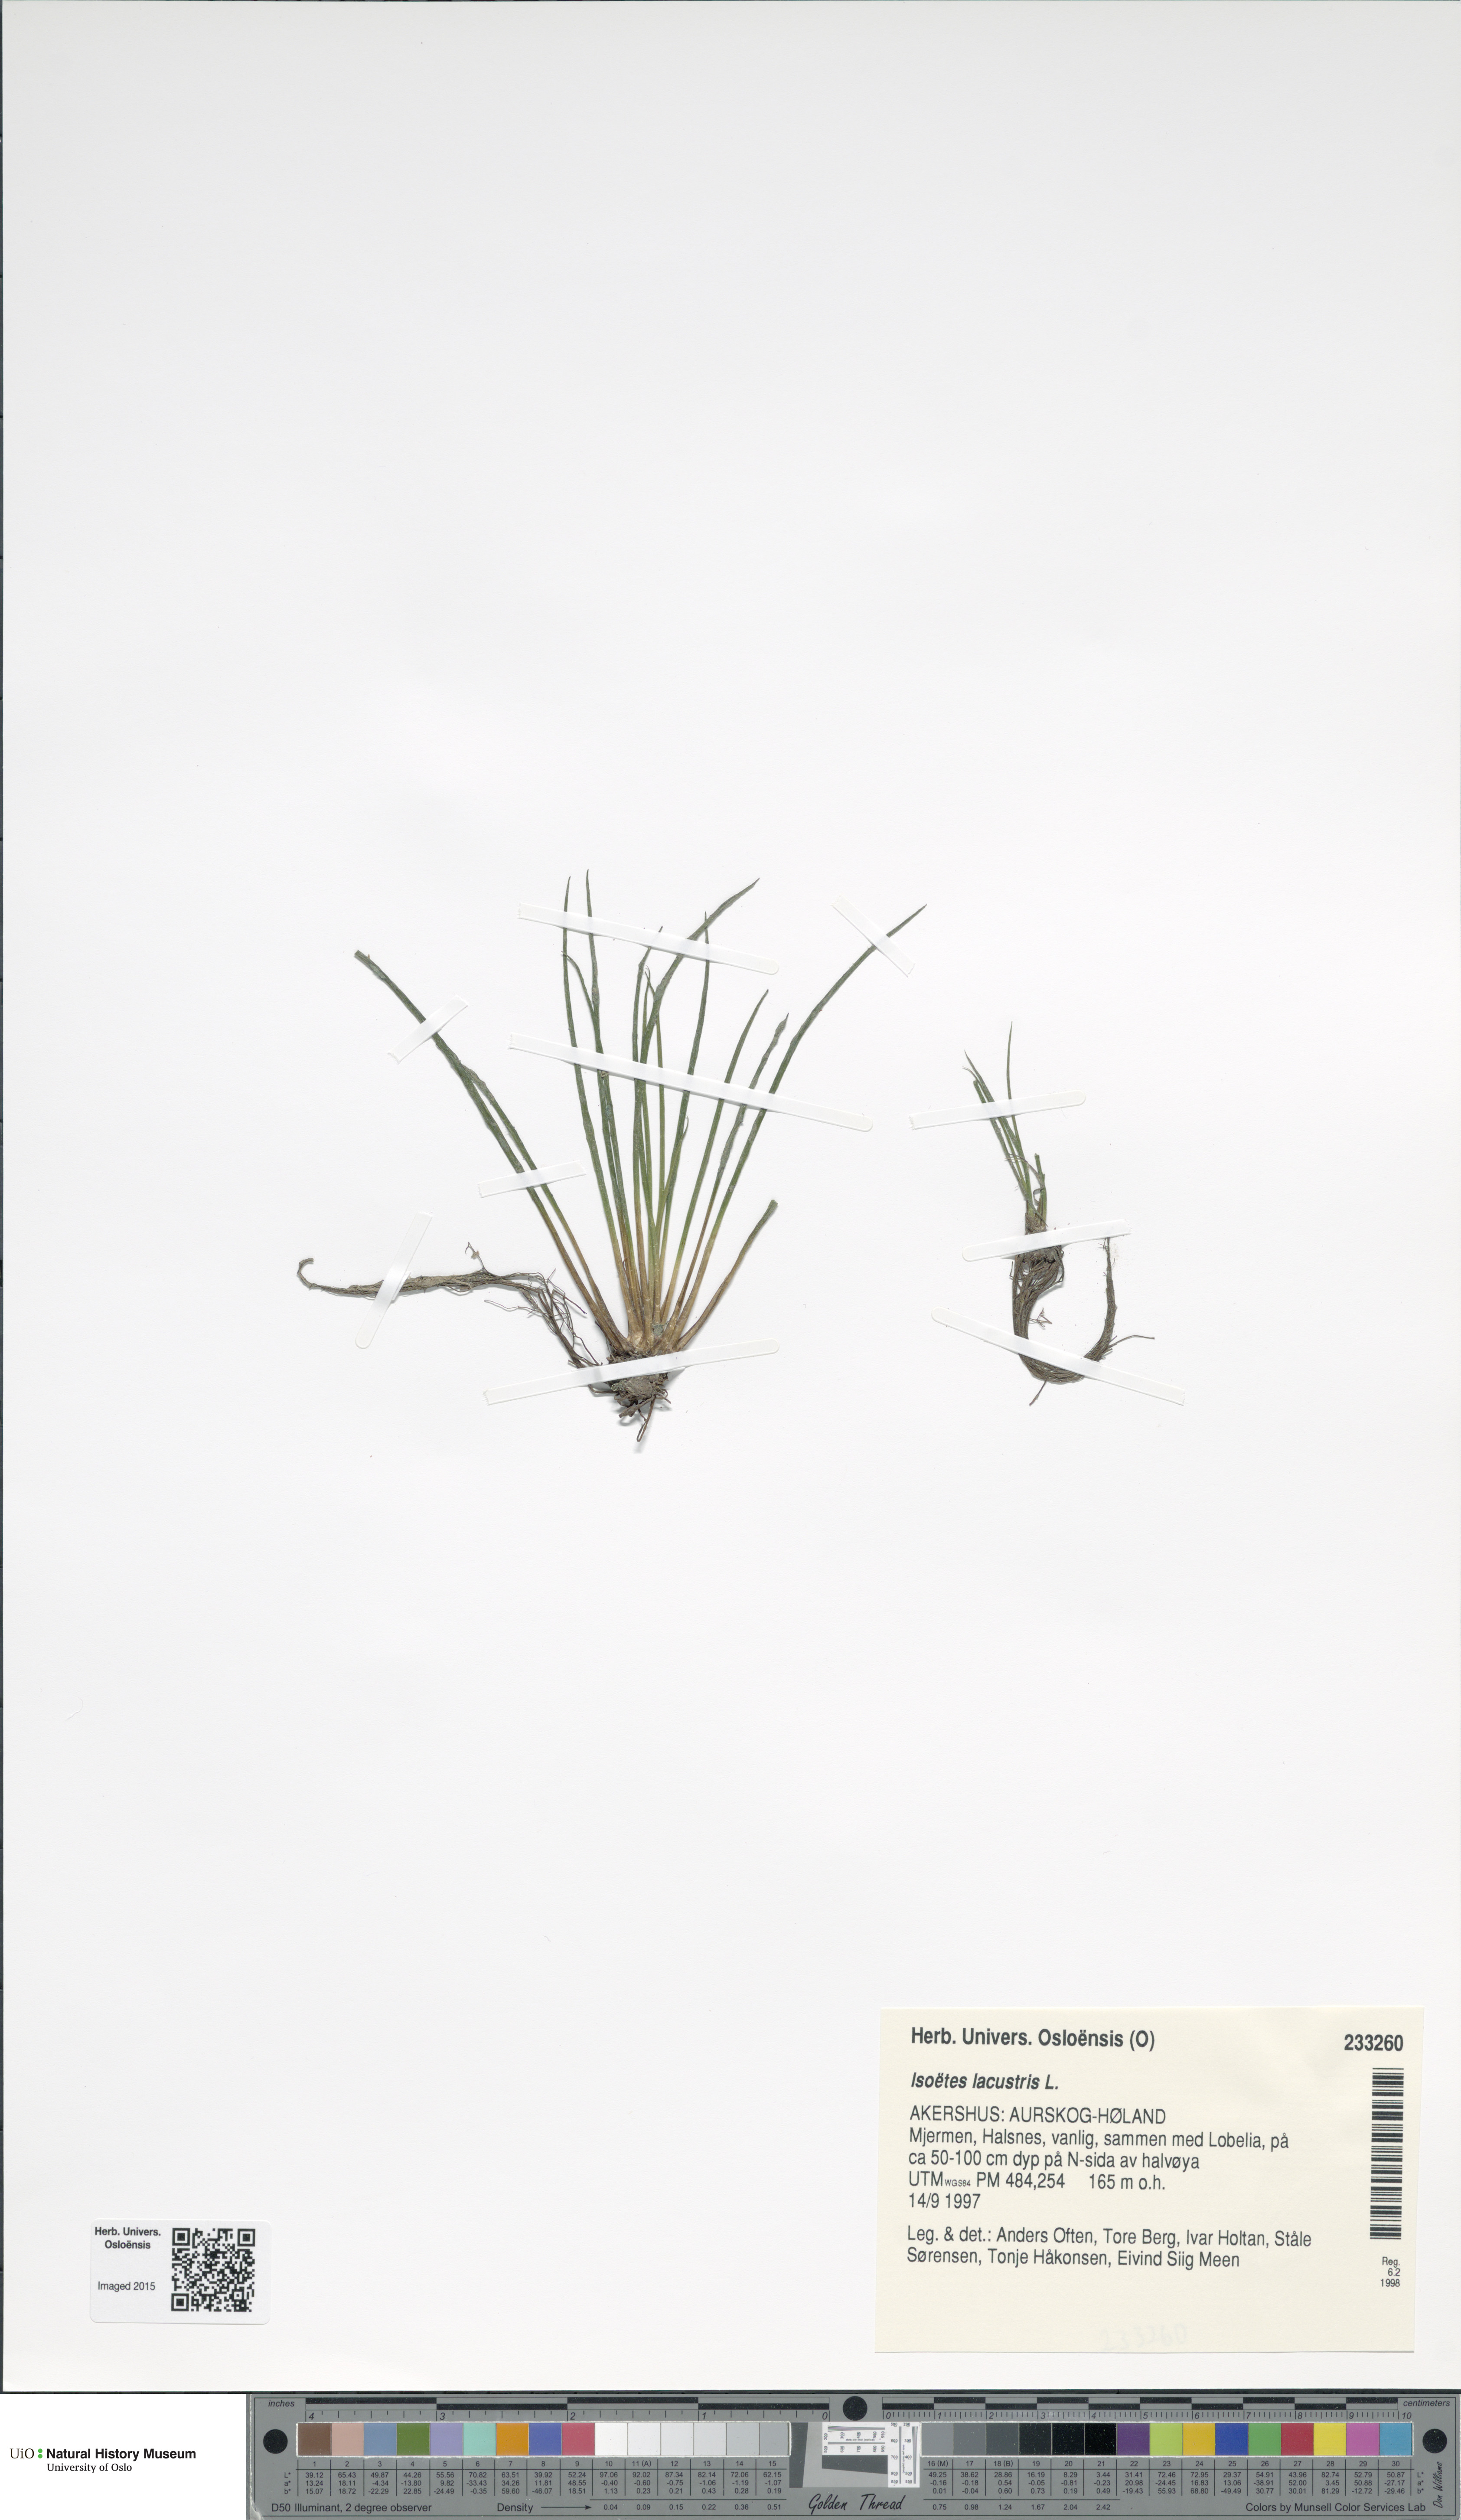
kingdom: Plantae
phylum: Tracheophyta
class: Lycopodiopsida
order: Isoetales
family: Isoetaceae
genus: Isoetes
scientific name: Isoetes lacustris
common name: Common quillwort
